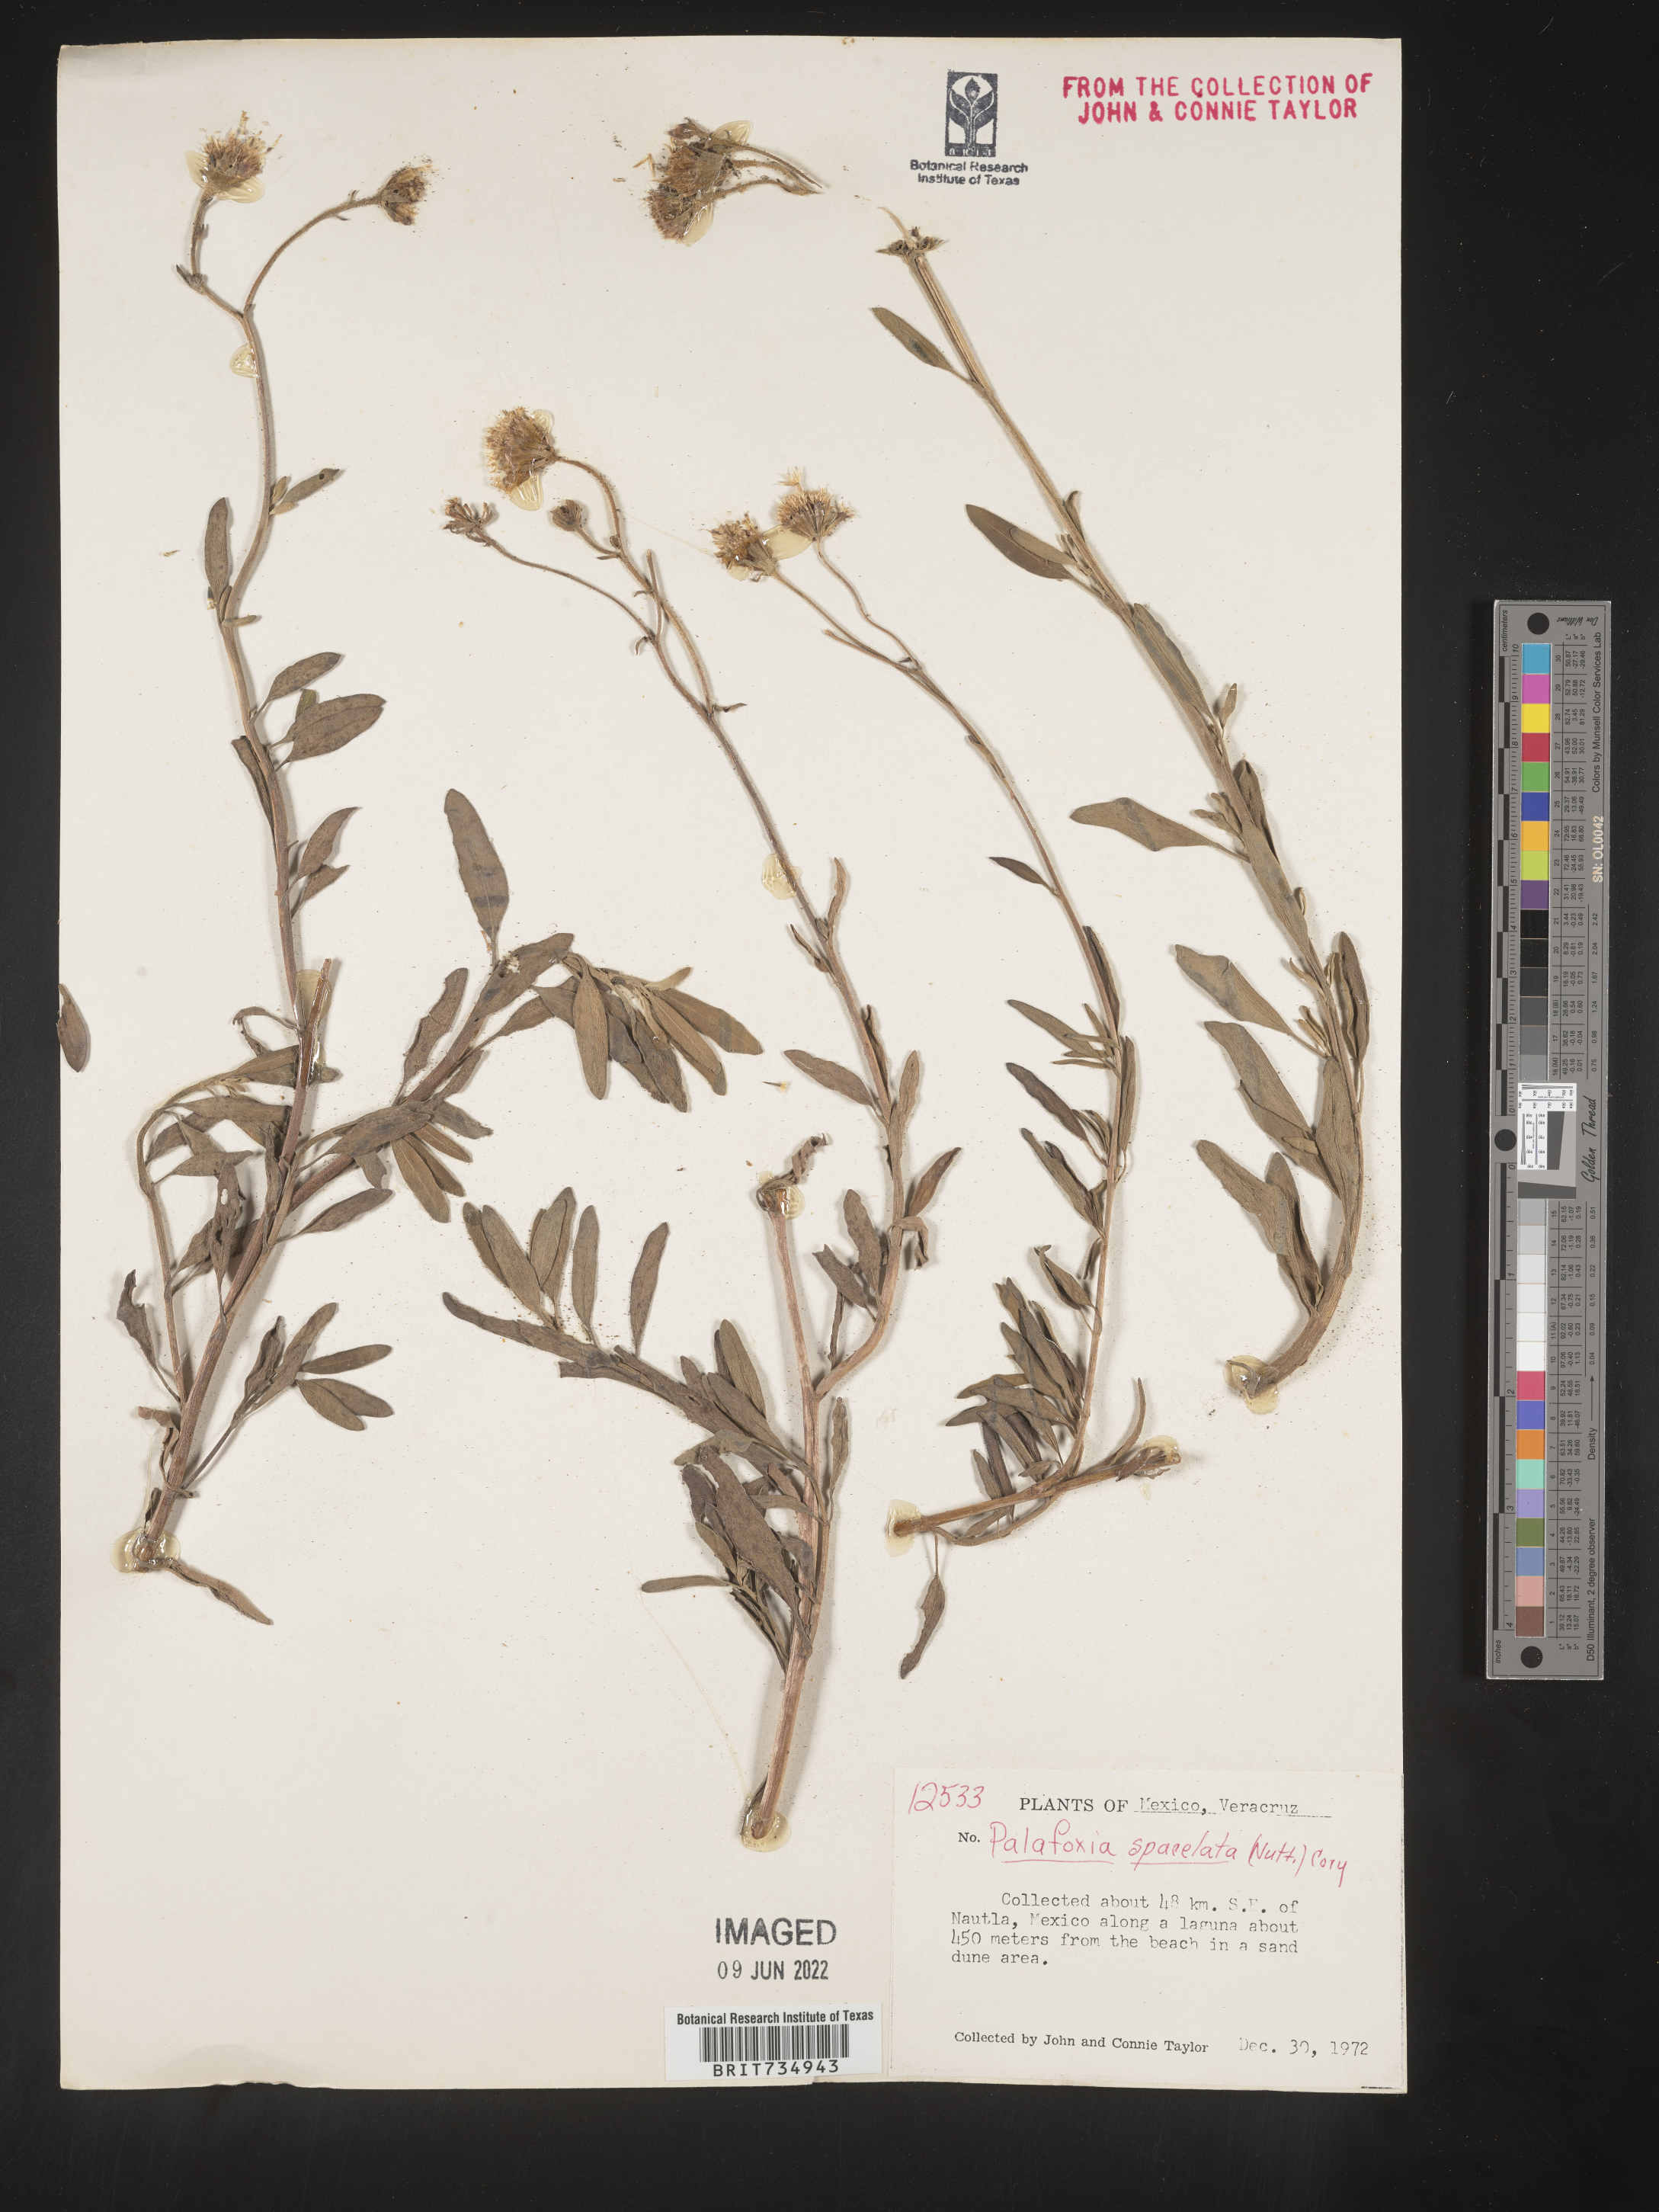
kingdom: Plantae
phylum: Tracheophyta
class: Magnoliopsida
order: Asterales
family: Asteraceae
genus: Palafoxia
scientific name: Palafoxia
